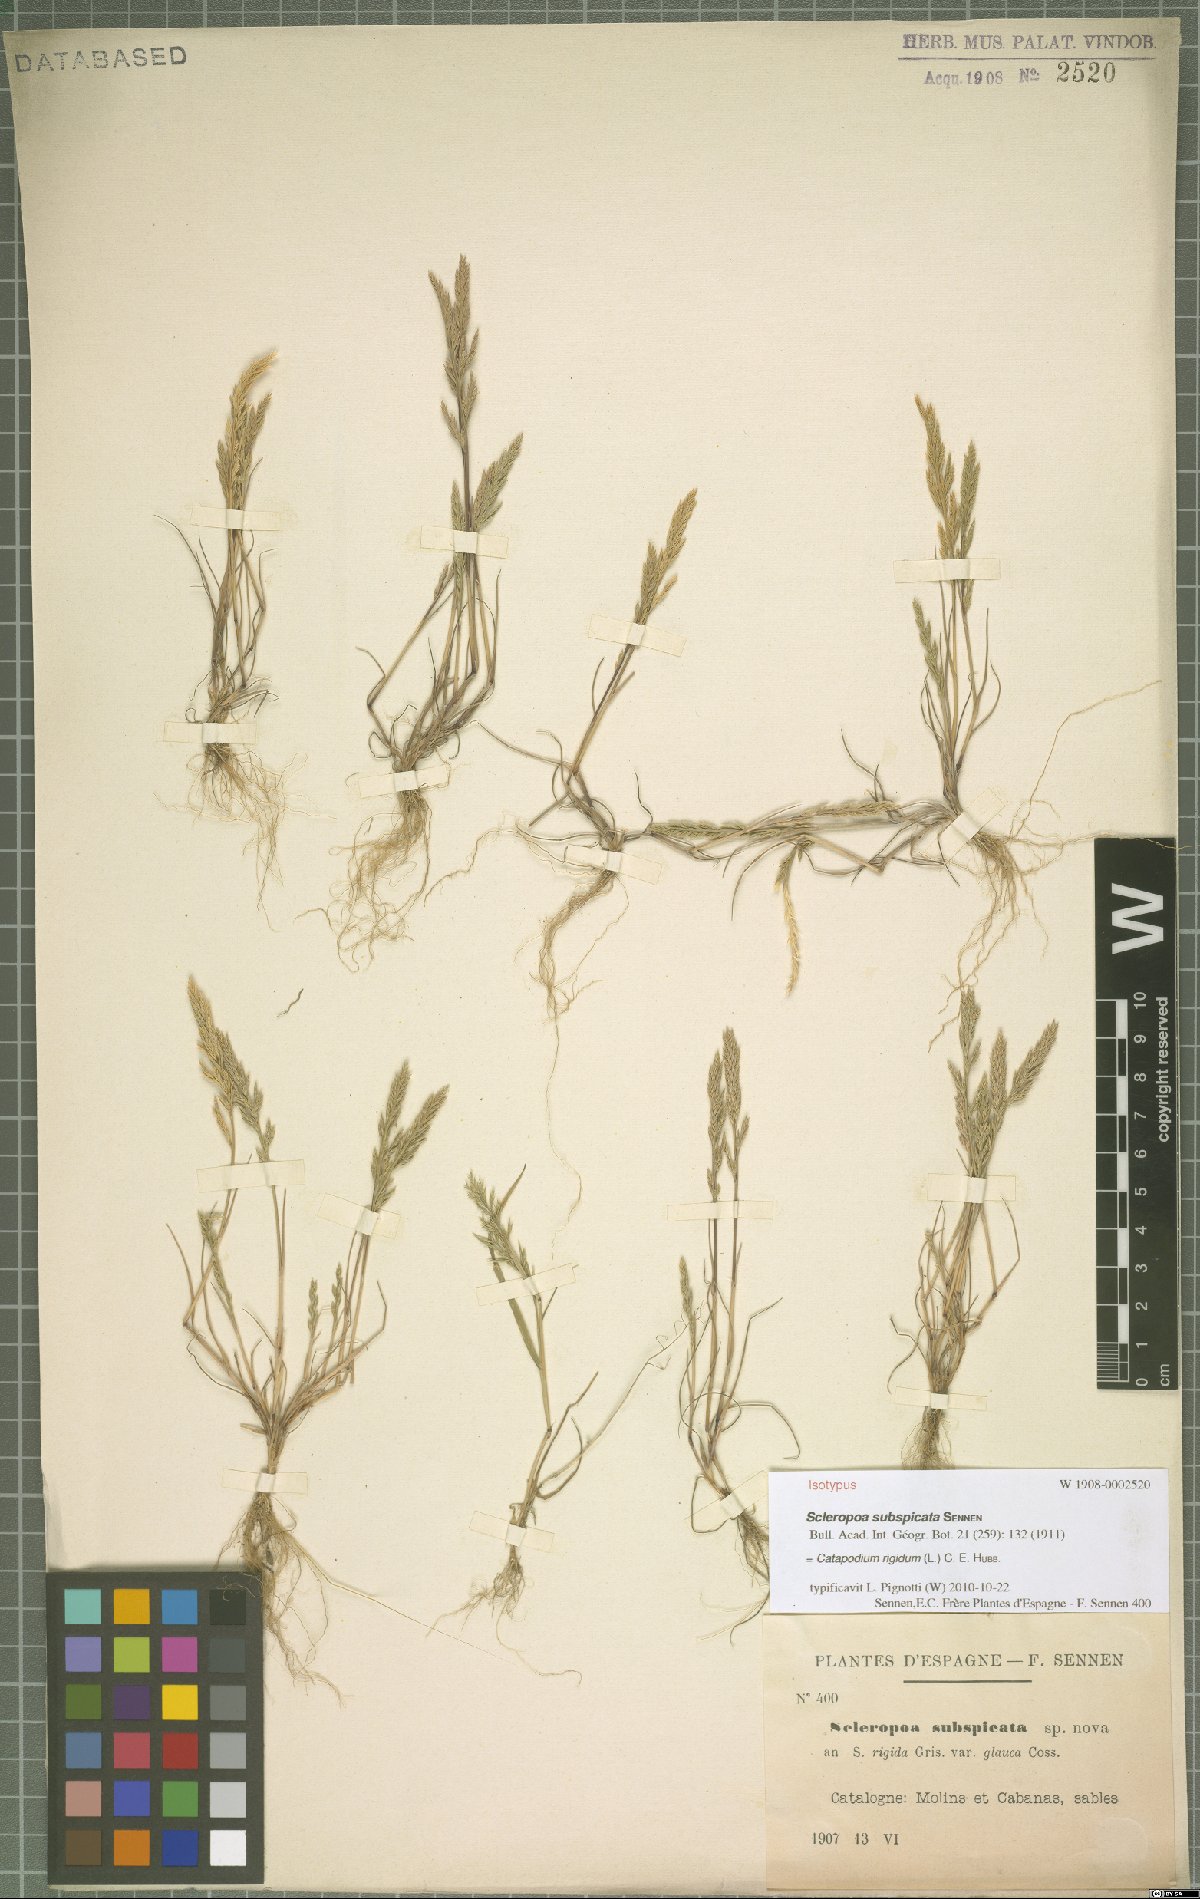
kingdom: Plantae
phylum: Tracheophyta
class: Liliopsida
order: Poales
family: Poaceae
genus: Catapodium
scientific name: Catapodium rigidum
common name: Fern-grass
